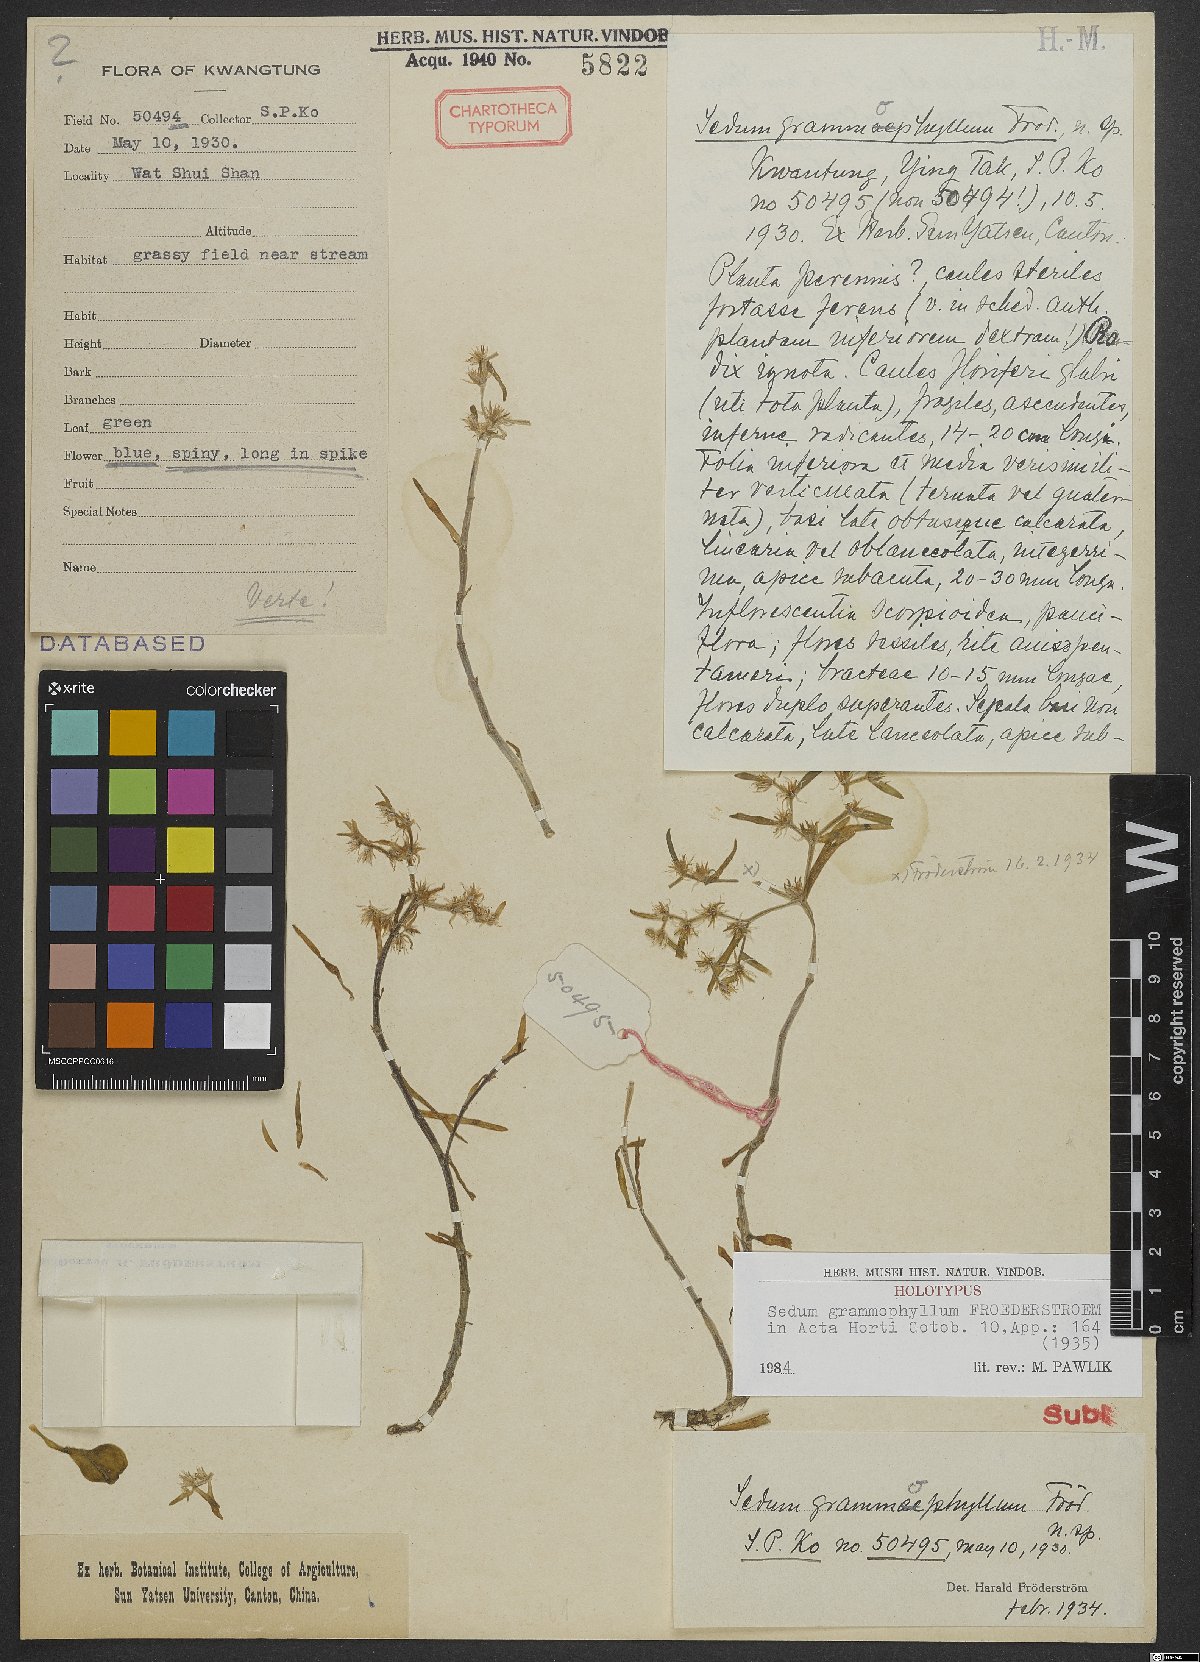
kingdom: Plantae
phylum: Tracheophyta
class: Magnoliopsida
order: Saxifragales
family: Crassulaceae
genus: Sedum
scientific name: Sedum grammophyllum
